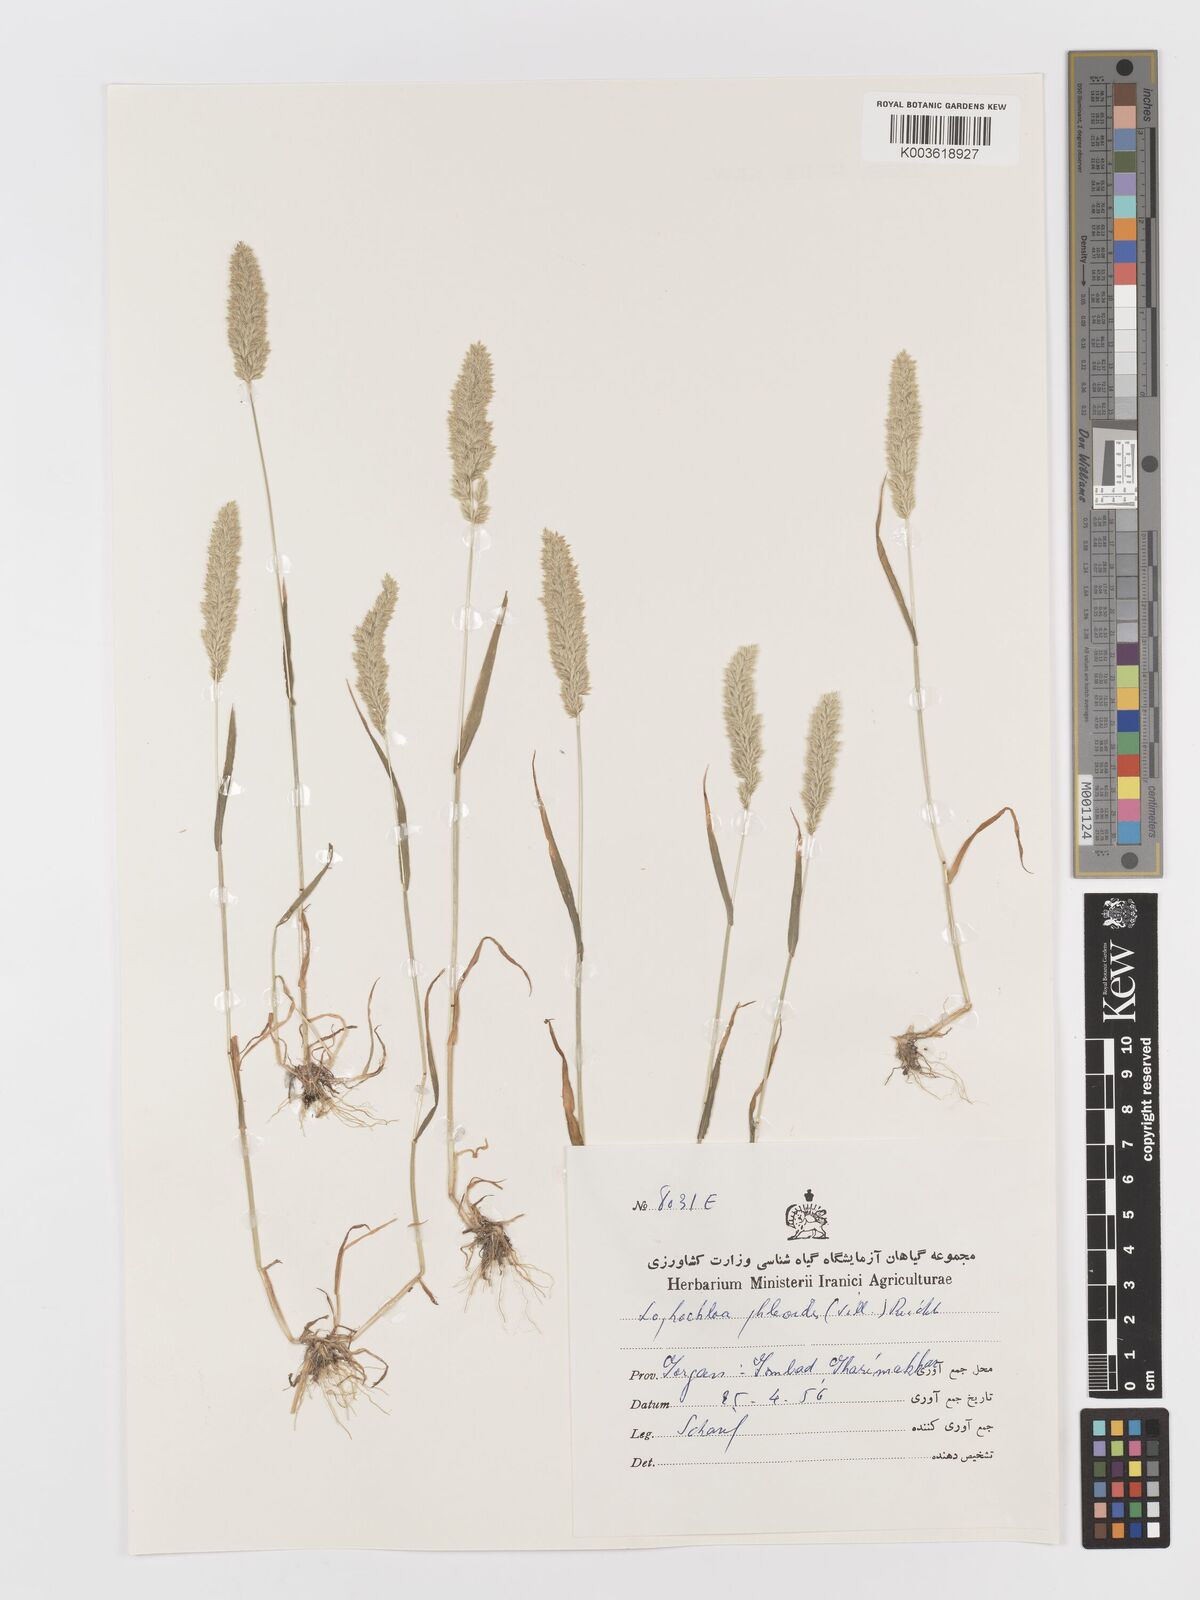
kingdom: Plantae
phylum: Tracheophyta
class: Liliopsida
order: Poales
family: Poaceae
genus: Rostraria
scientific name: Rostraria cristata
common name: Mediterranean hair-grass
